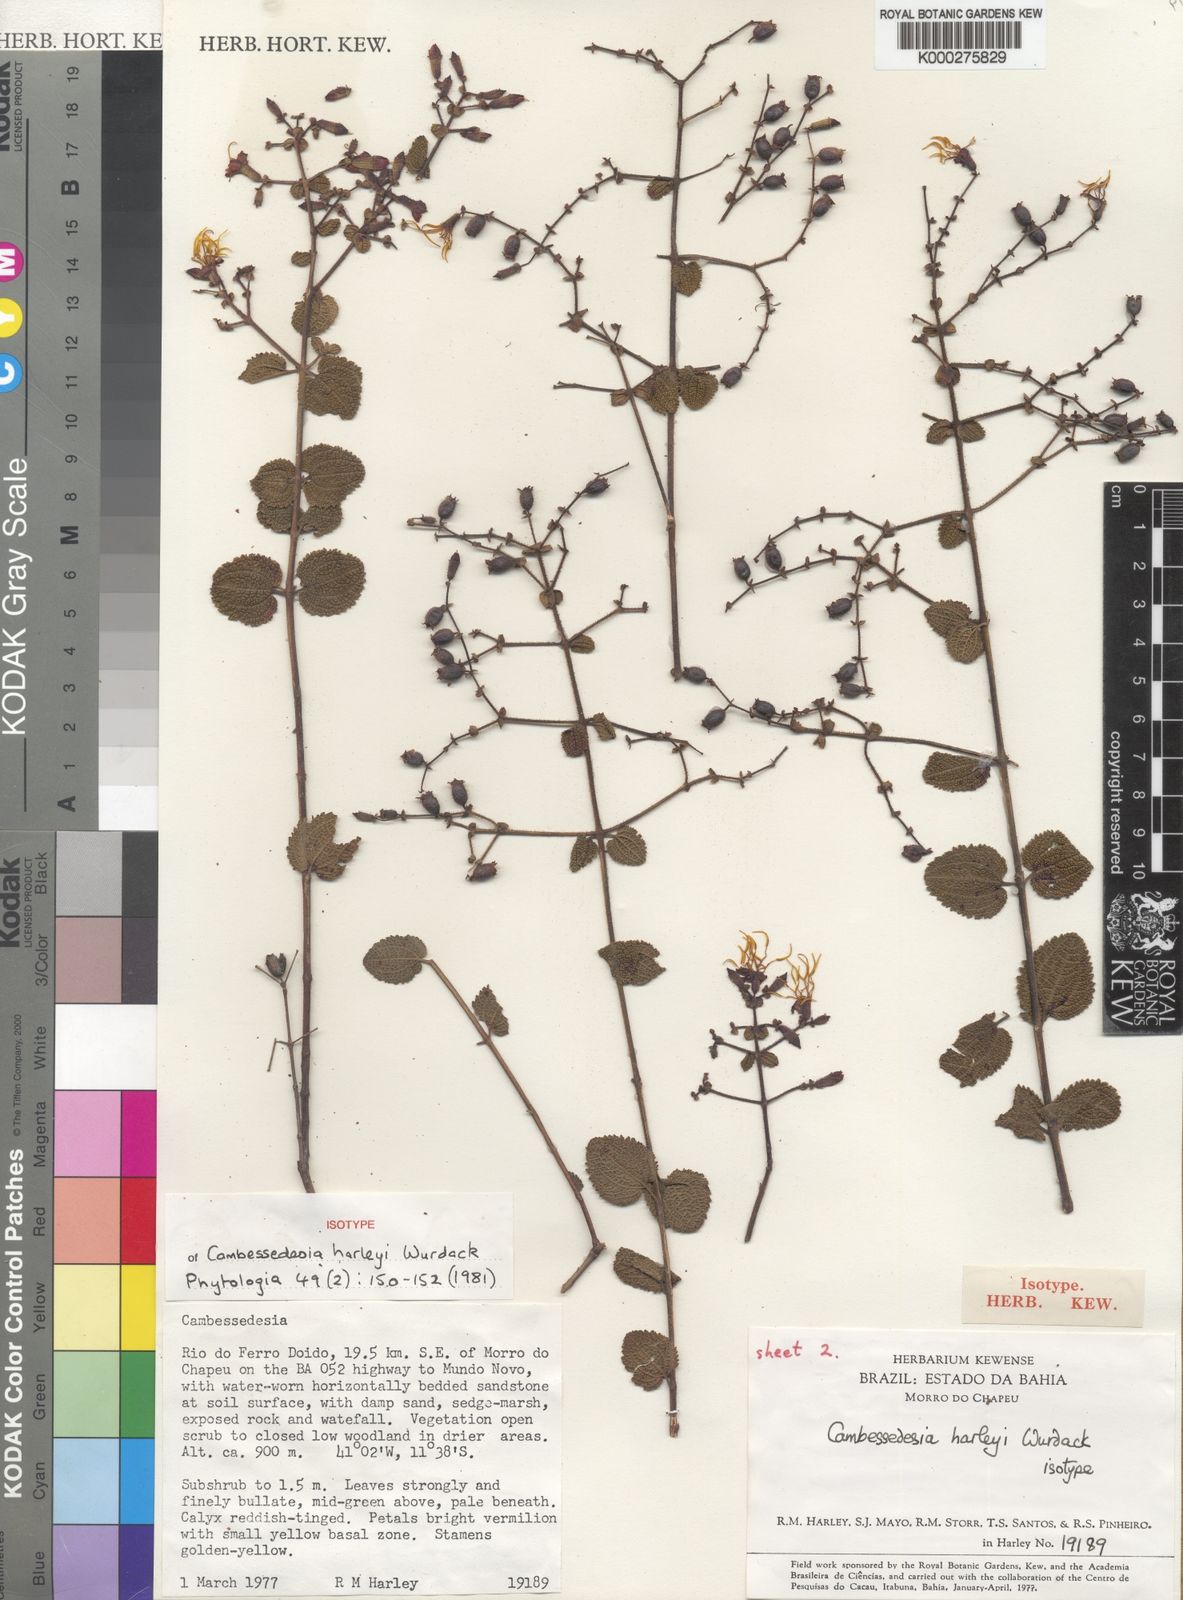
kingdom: Plantae
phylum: Tracheophyta
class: Magnoliopsida
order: Myrtales
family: Melastomataceae
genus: Cambessedesia
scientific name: Cambessedesia harleyi
